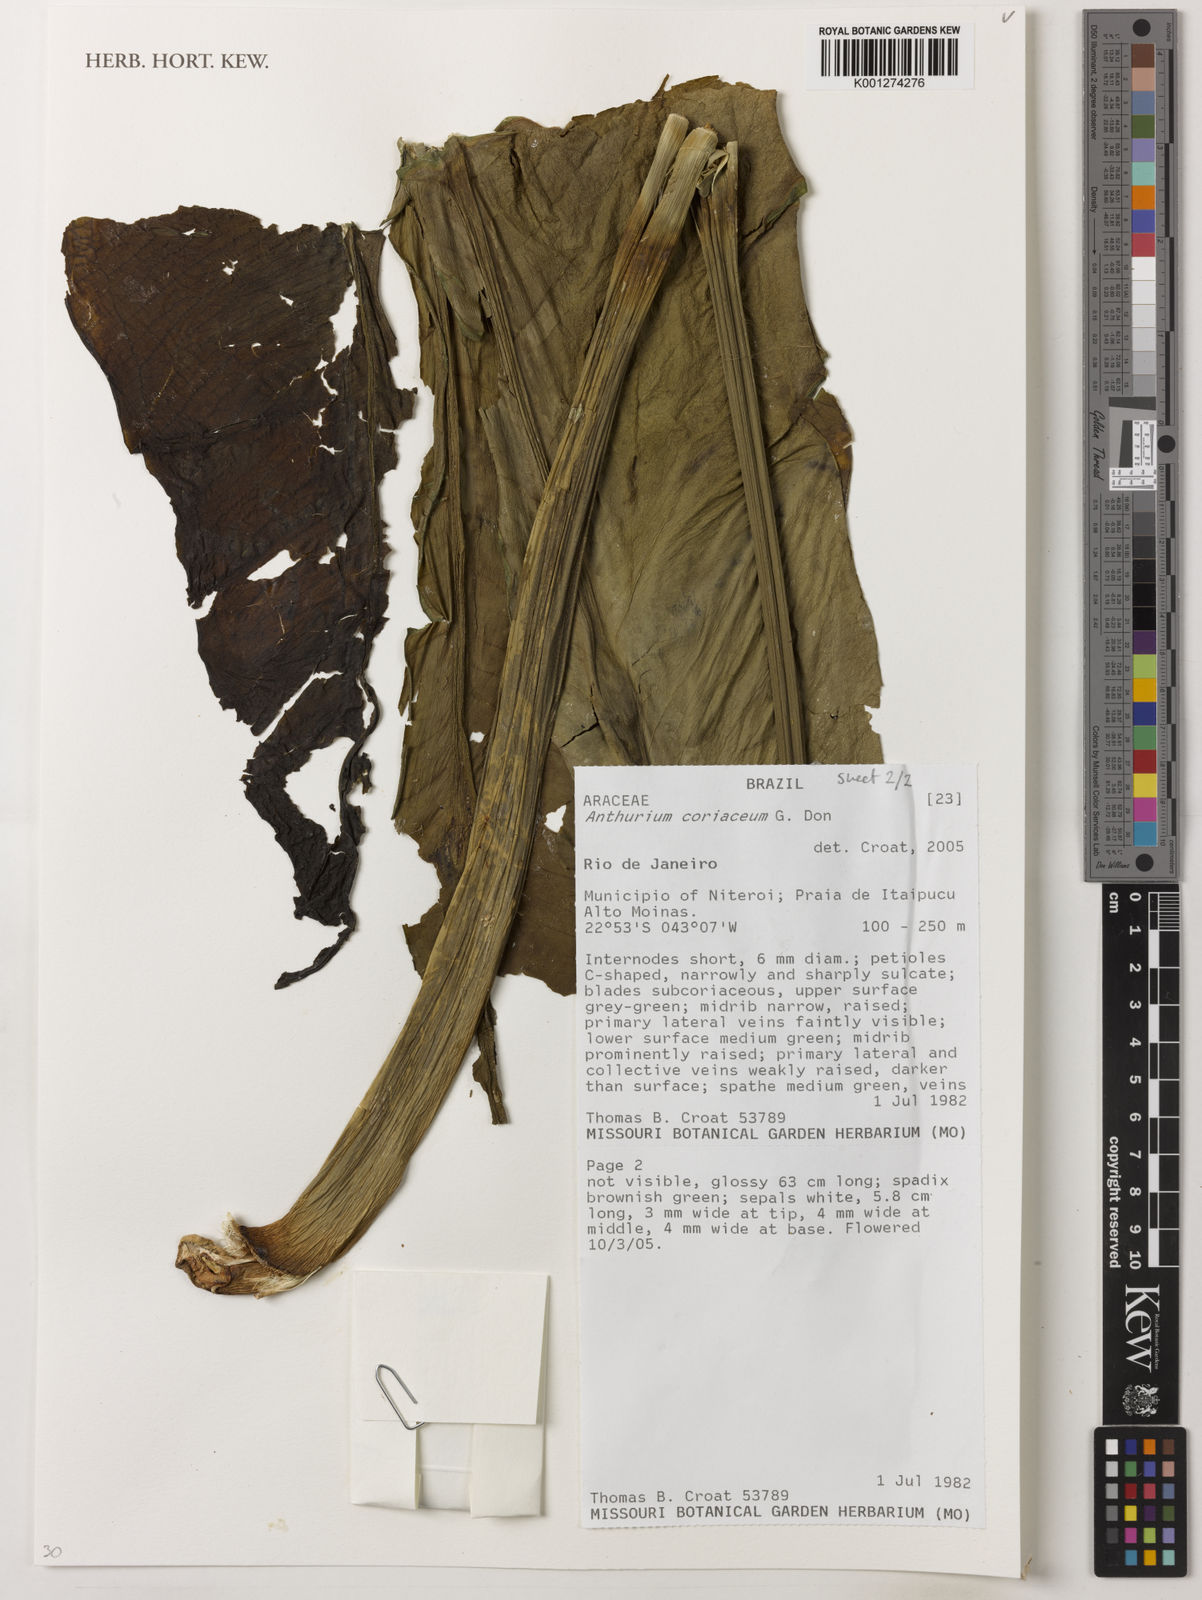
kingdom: Plantae
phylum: Tracheophyta
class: Liliopsida
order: Alismatales
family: Araceae
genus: Anthurium
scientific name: Anthurium
